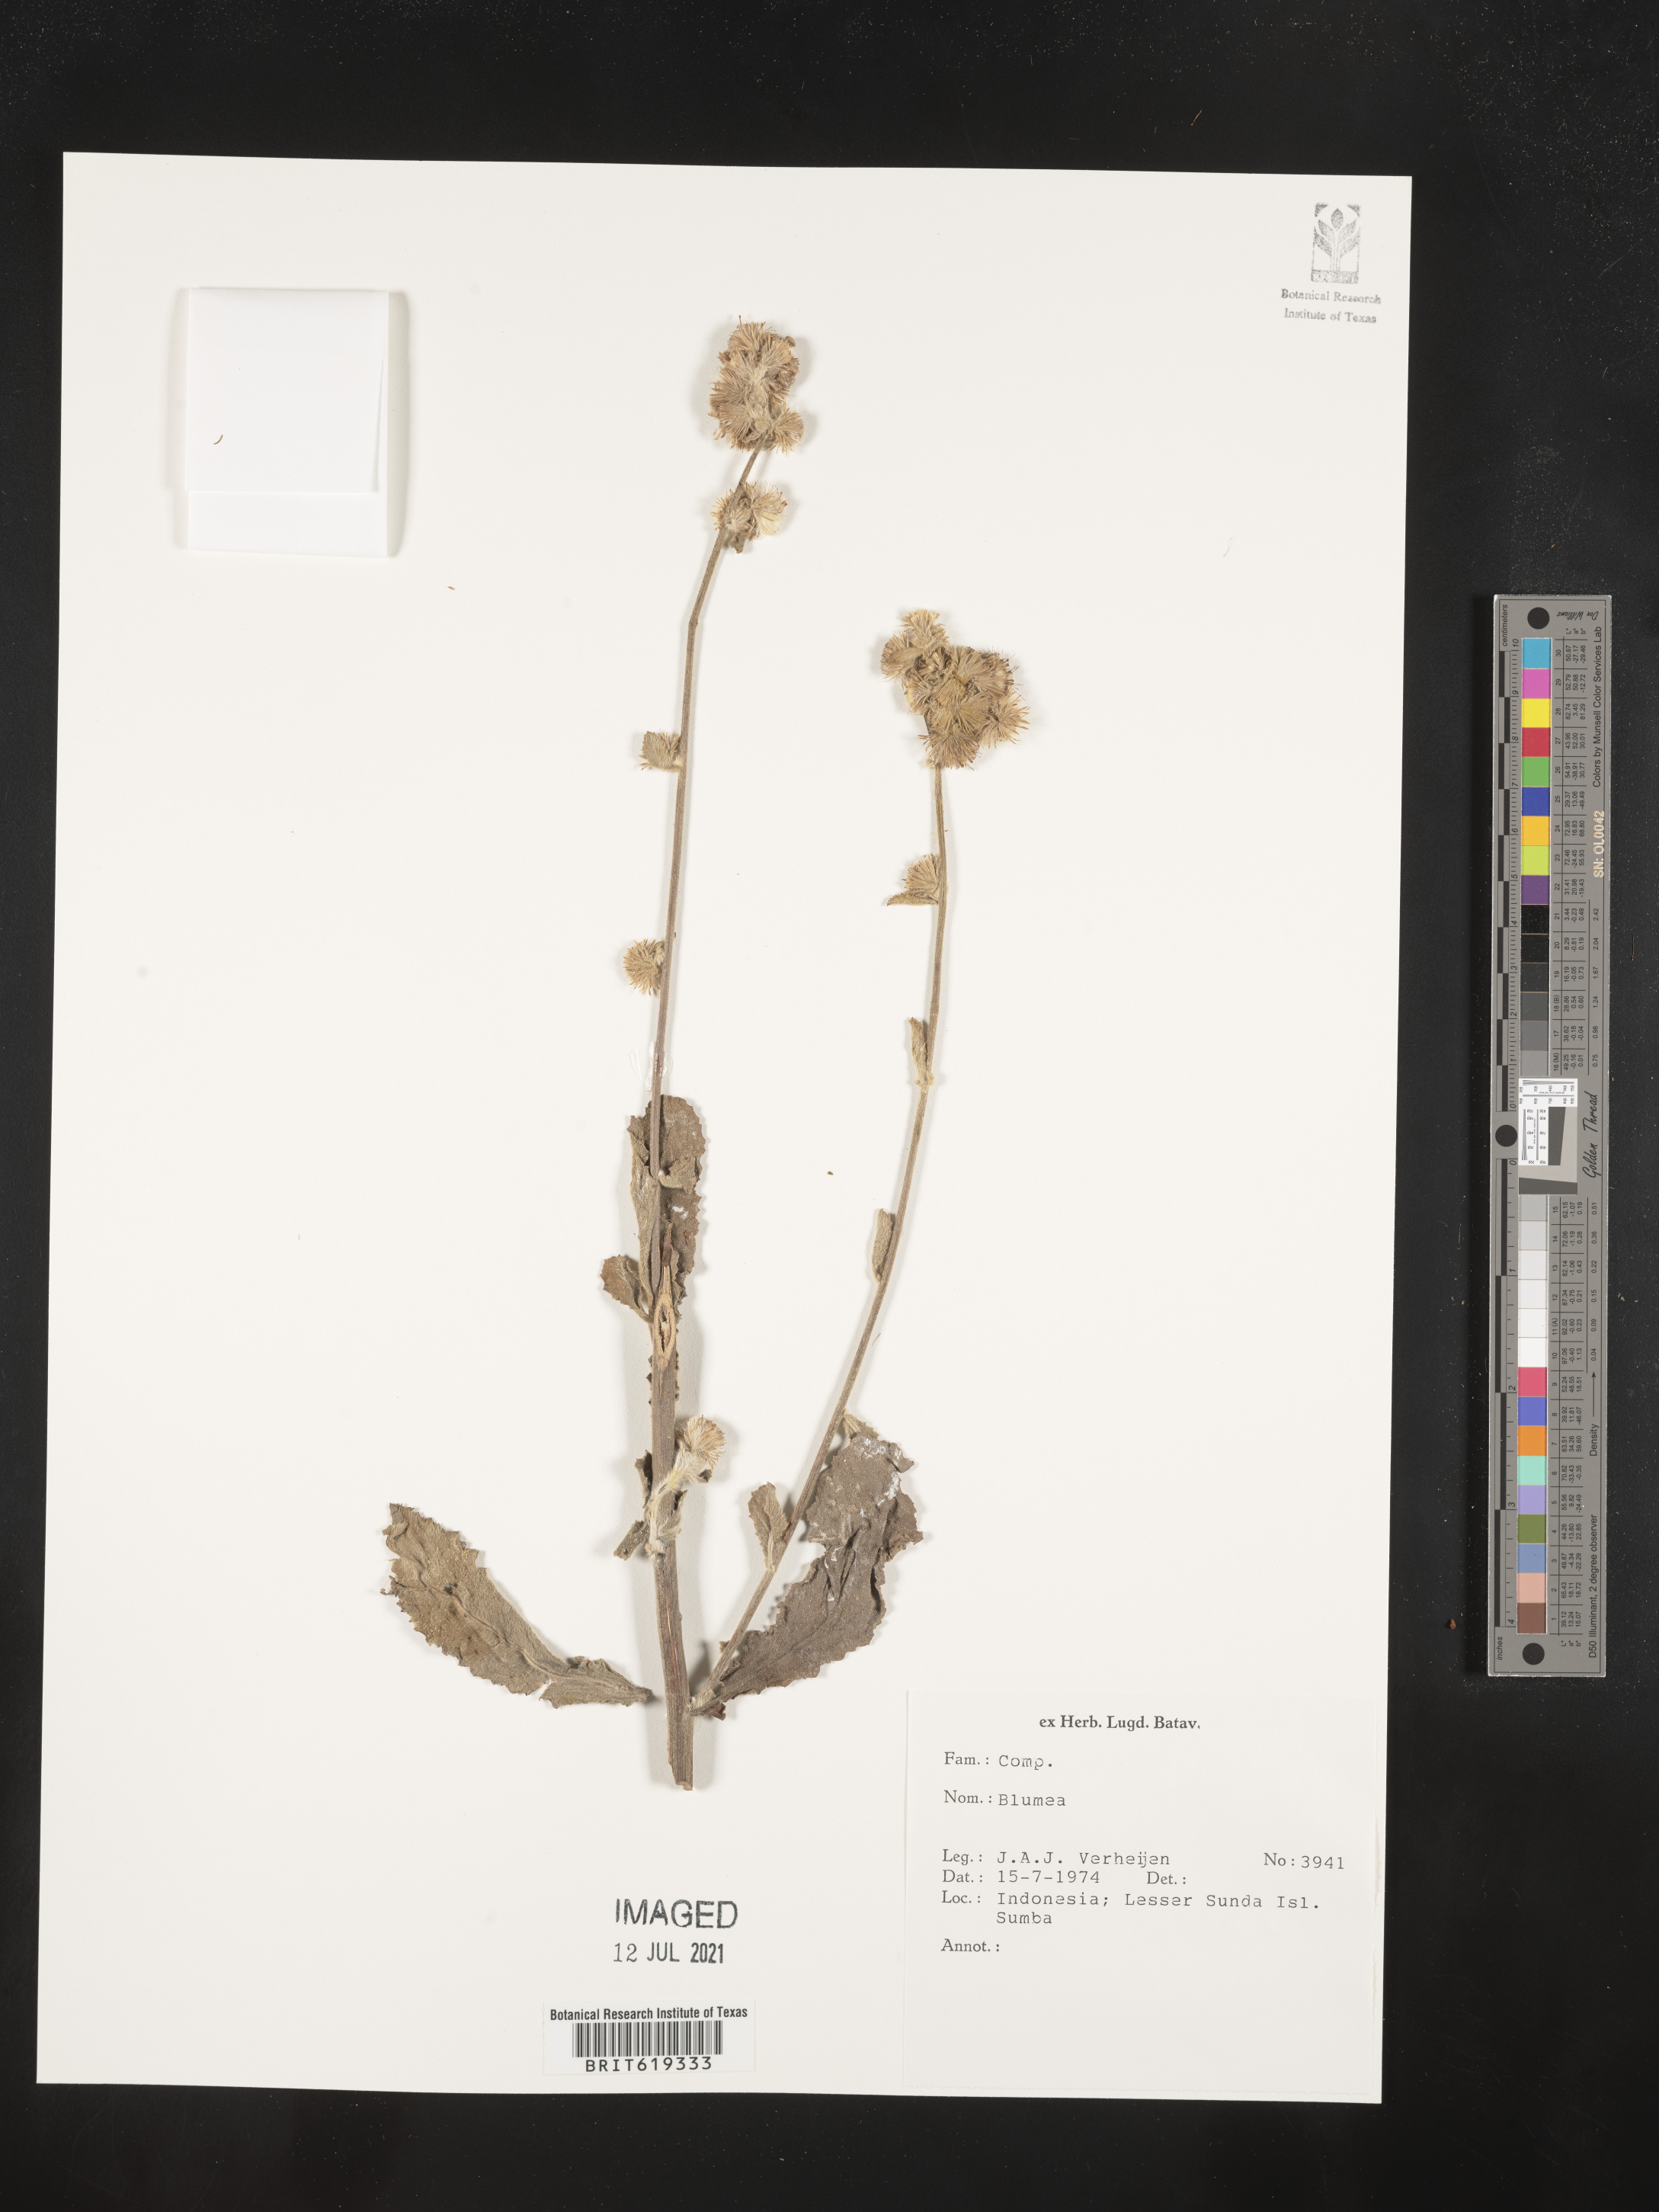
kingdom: Plantae
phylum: Tracheophyta
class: Magnoliopsida
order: Asterales
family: Asteraceae
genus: Blumea
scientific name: Blumea
